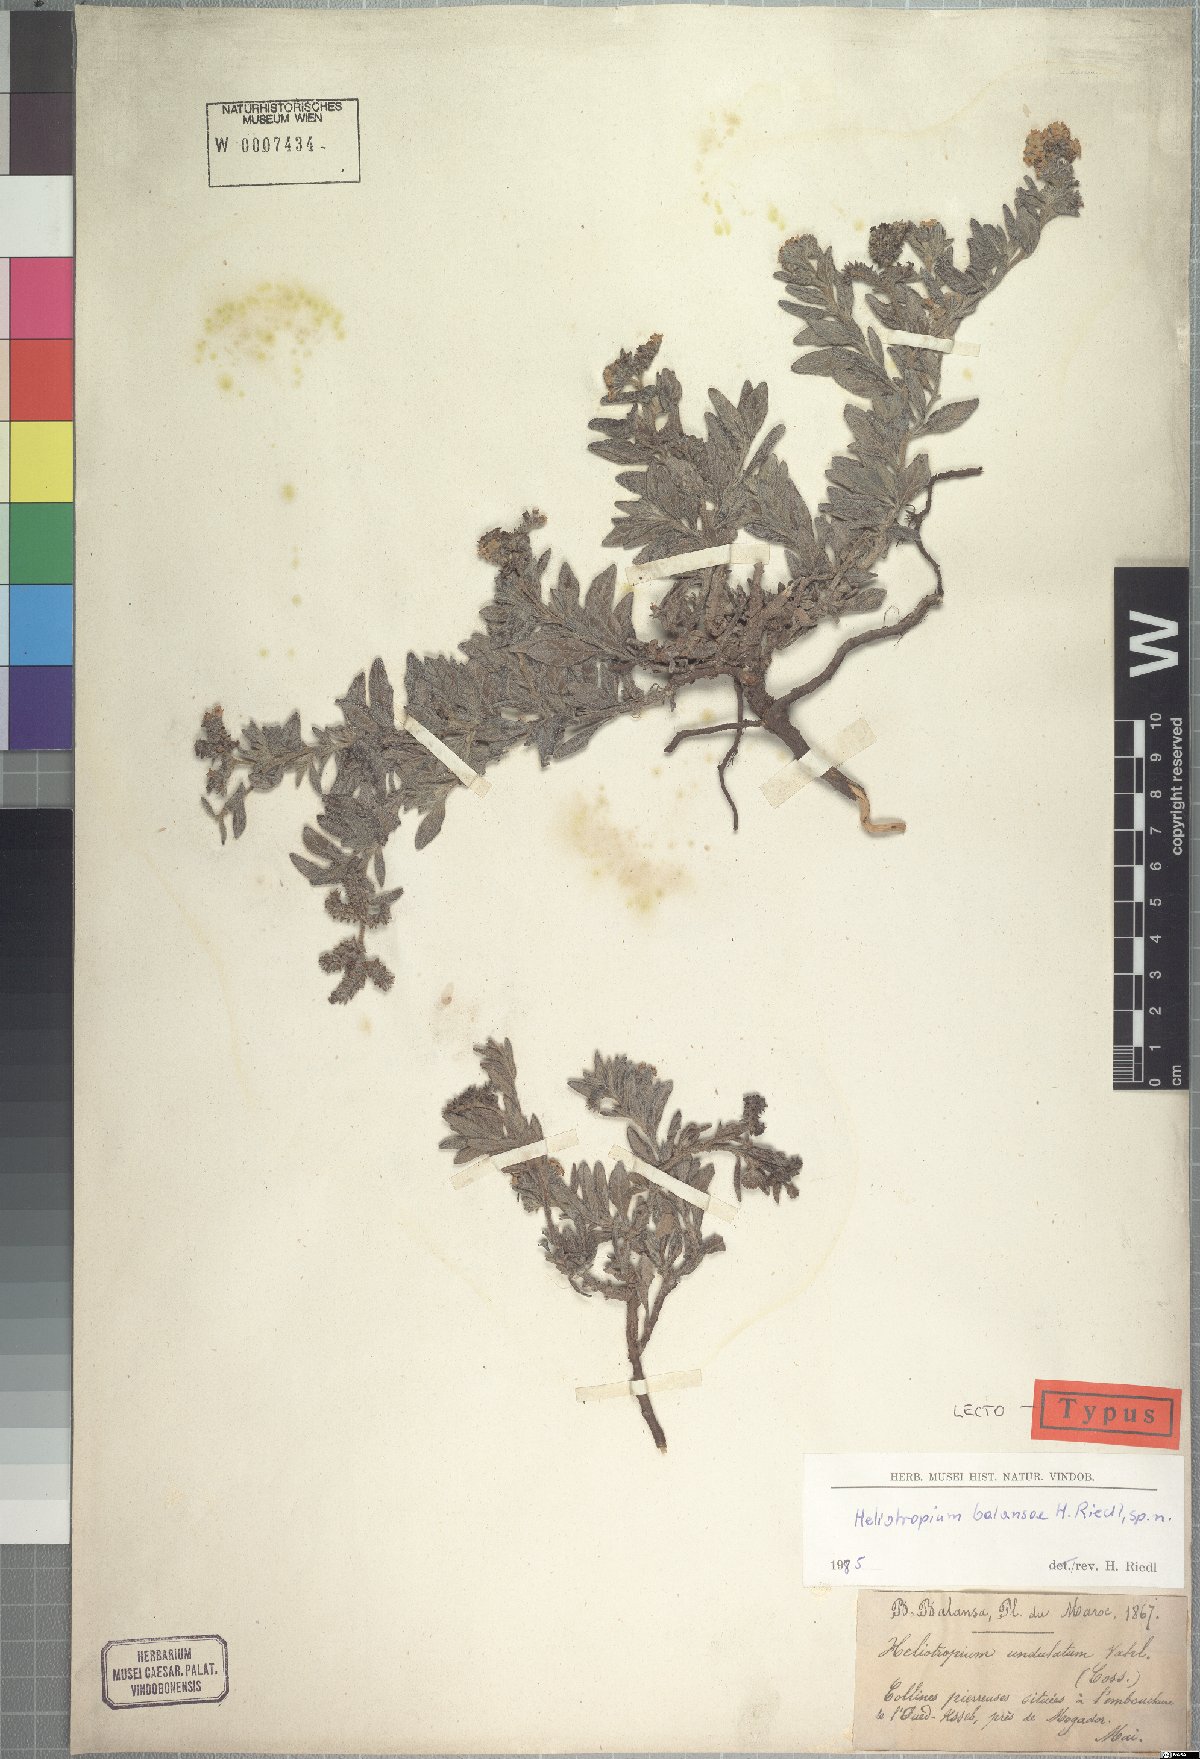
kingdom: Plantae
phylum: Tracheophyta
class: Magnoliopsida
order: Boraginales
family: Heliotropiaceae
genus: Heliotropium
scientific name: Heliotropium ramosissimum
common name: Wavy heliotrope
